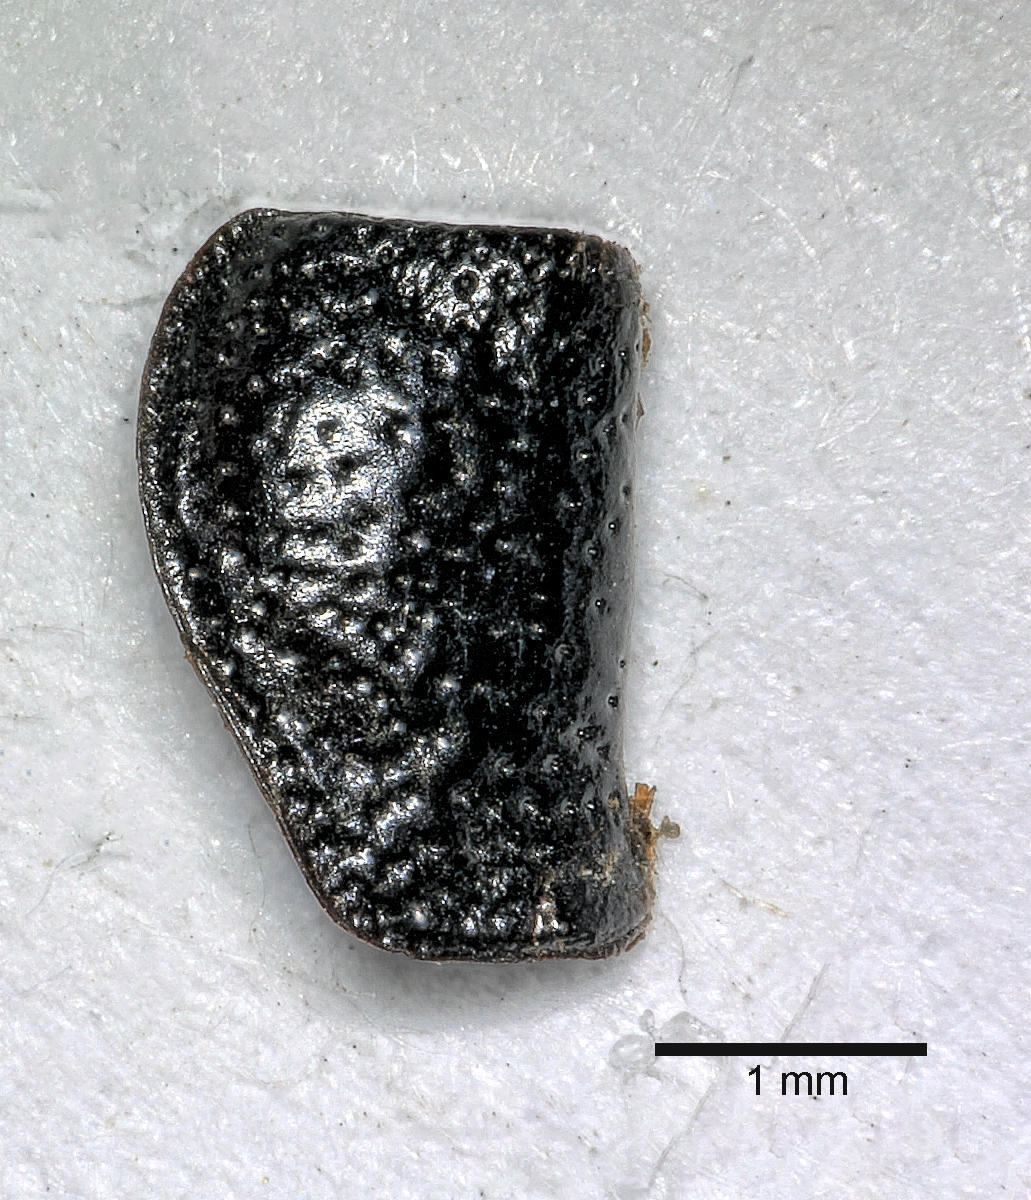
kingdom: Animalia
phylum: Arthropoda
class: Insecta
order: Coleoptera
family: Carabidae
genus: Dicheirus
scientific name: Dicheirus dilatatus
